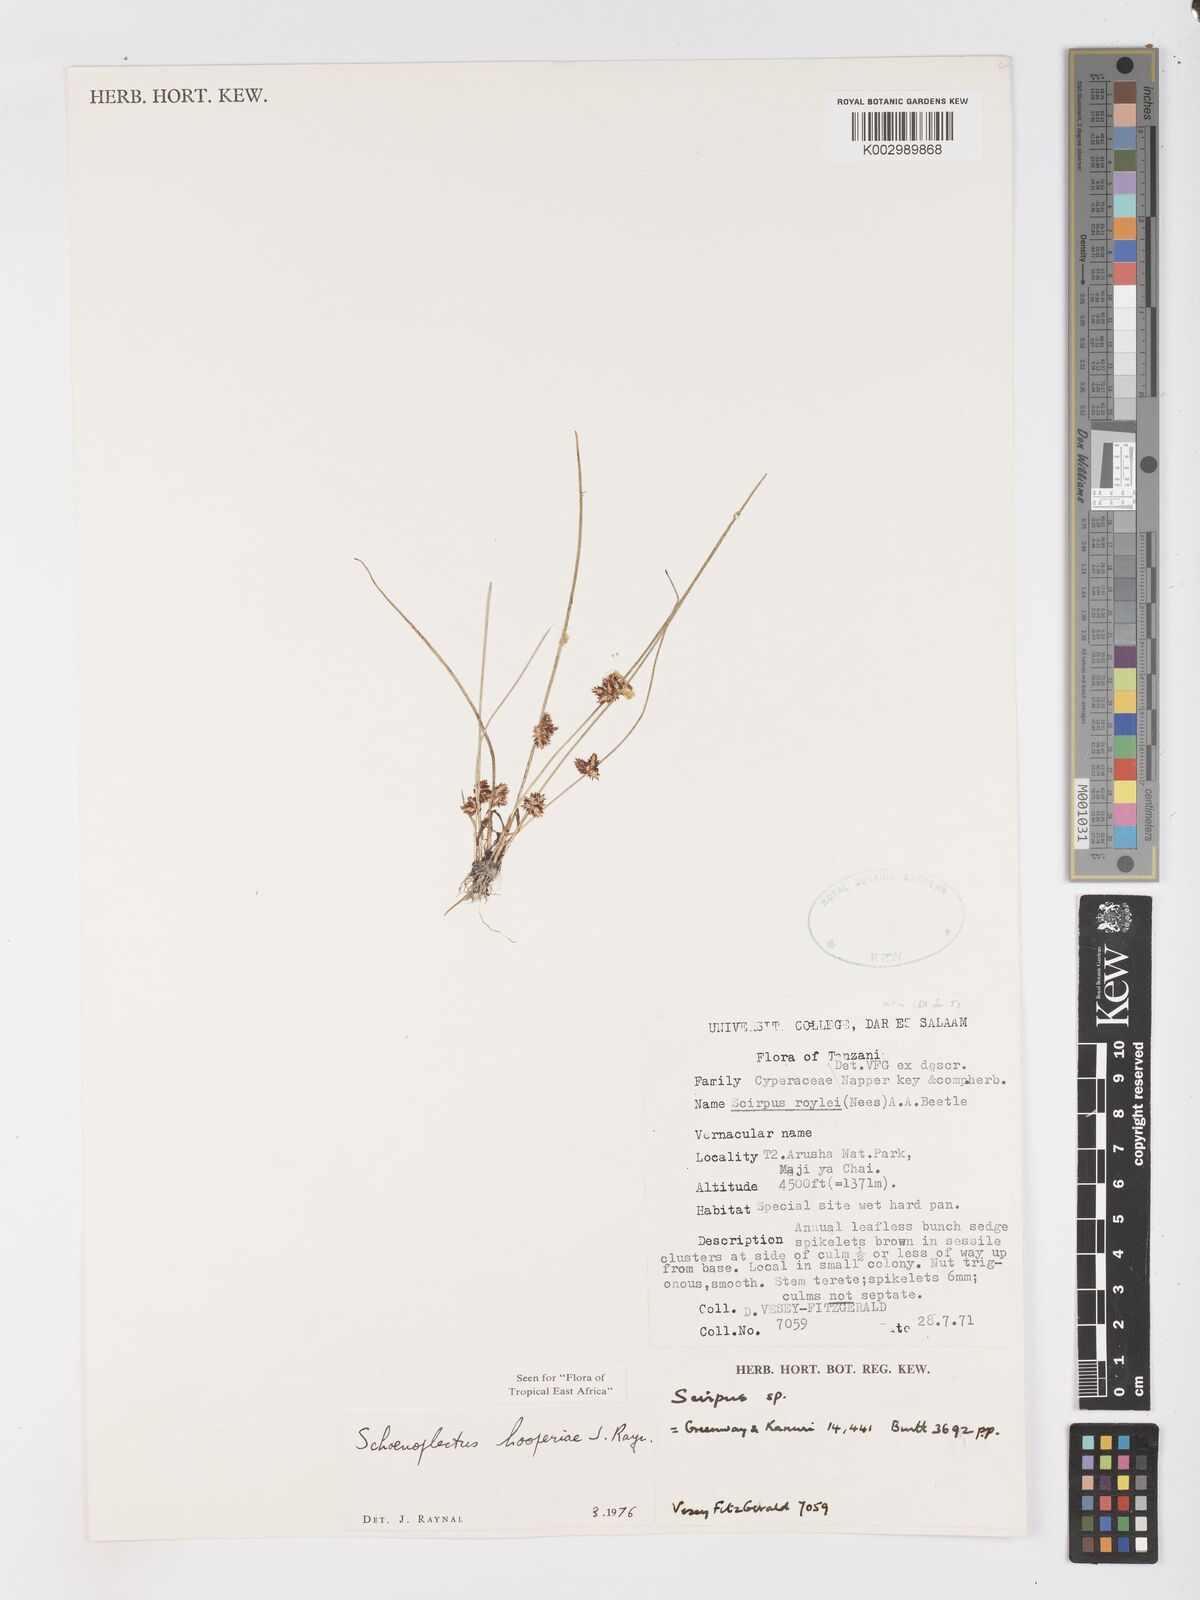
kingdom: Plantae
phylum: Tracheophyta
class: Liliopsida
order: Poales
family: Cyperaceae
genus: Schoenoplectiella
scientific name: Schoenoplectiella hooperae
